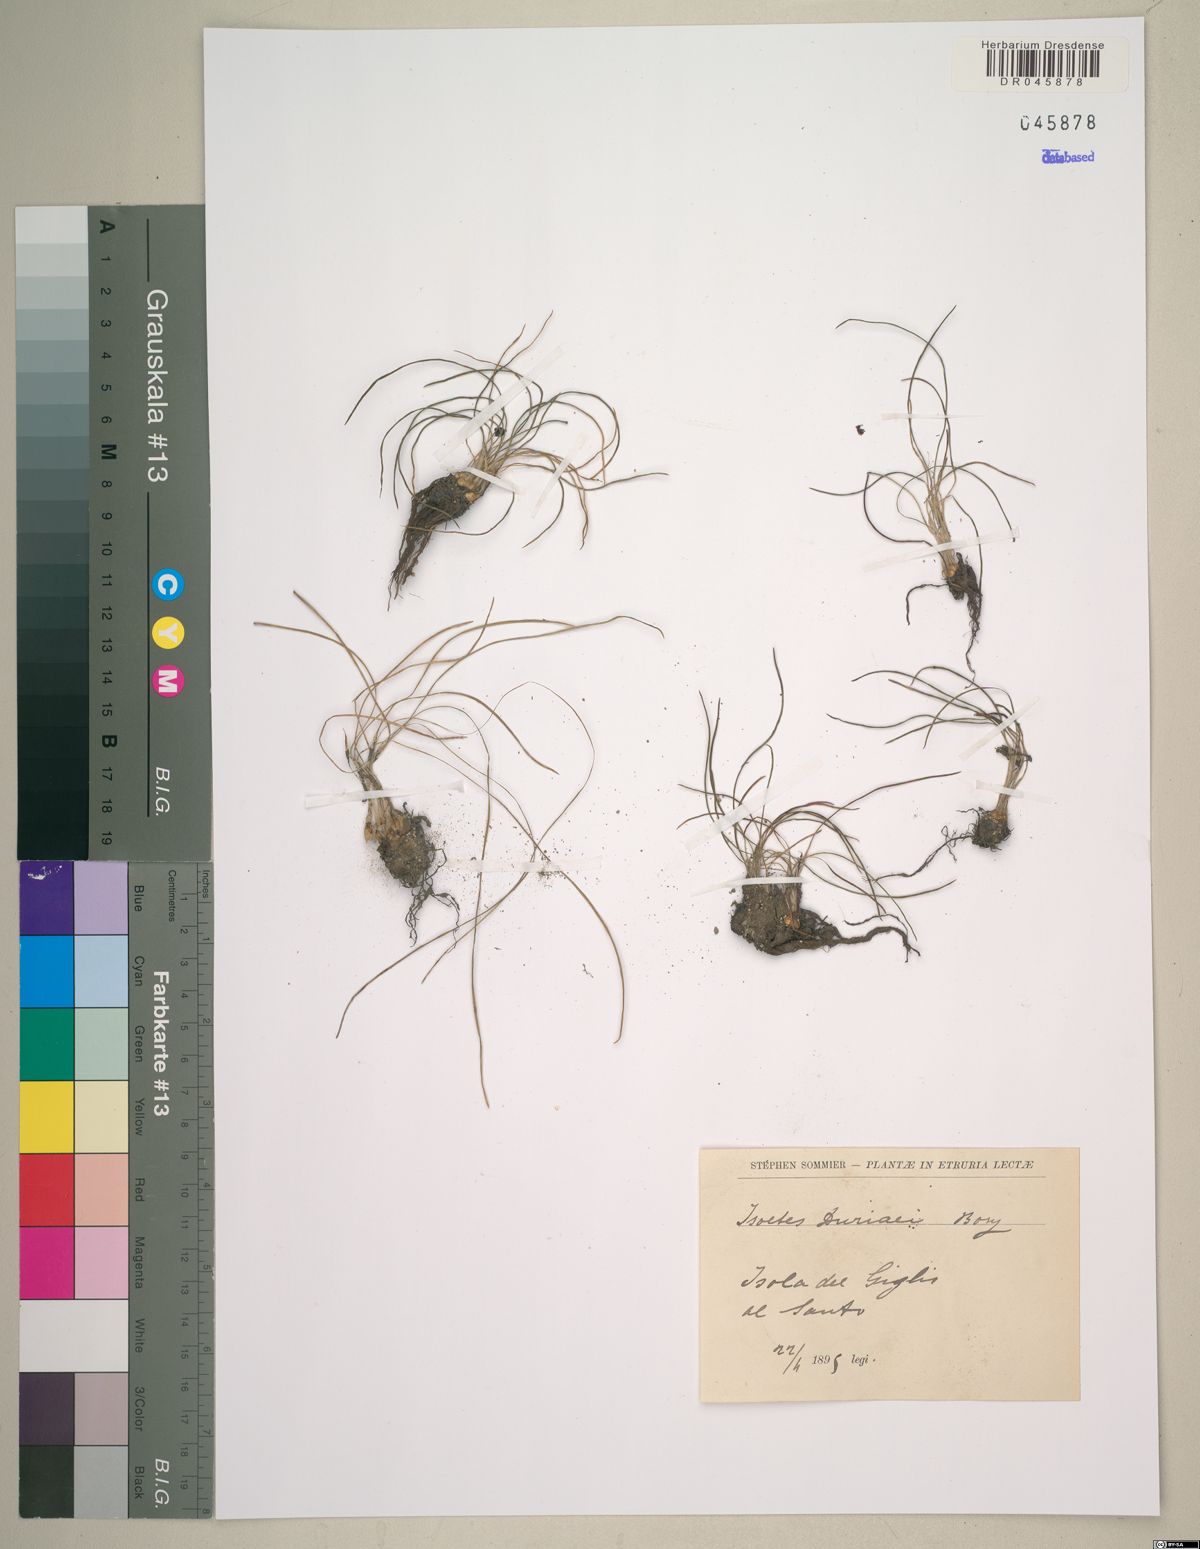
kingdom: Plantae
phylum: Tracheophyta
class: Lycopodiopsida
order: Isoetales
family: Isoetaceae
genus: Isoetes
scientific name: Isoetes duriei
